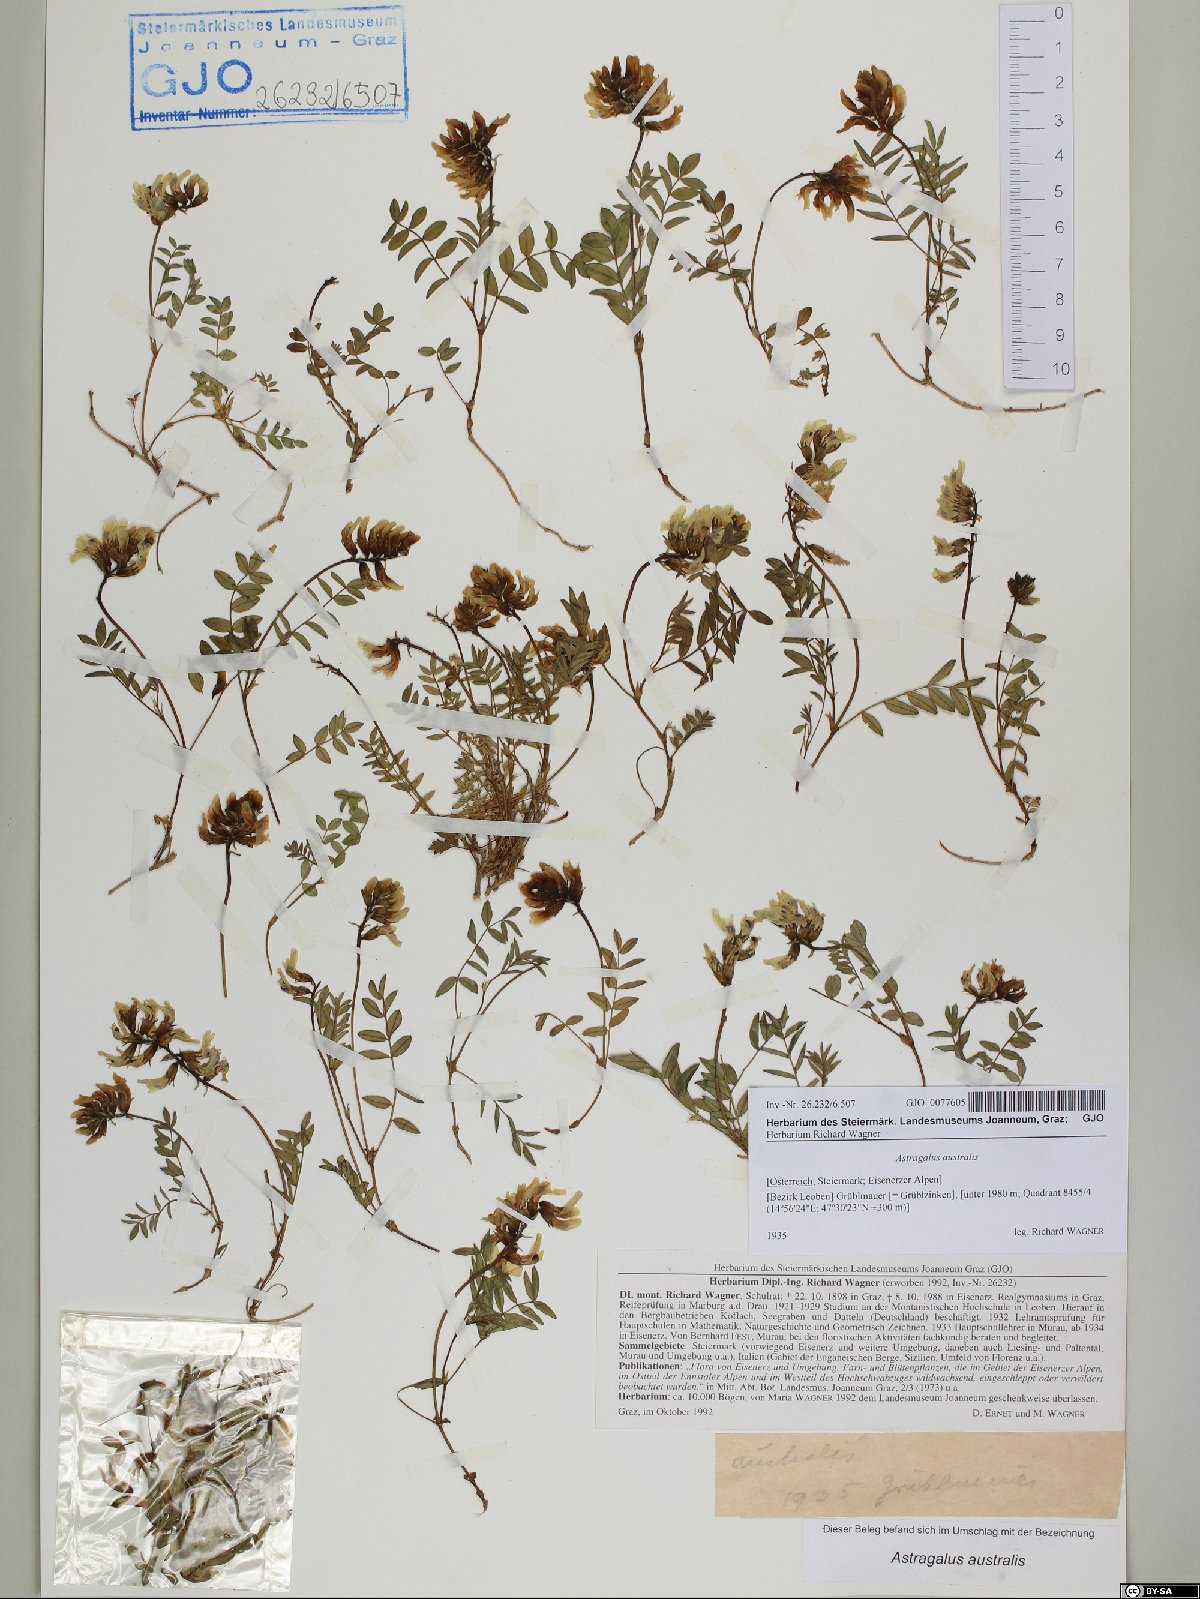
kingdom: Plantae
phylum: Tracheophyta
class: Magnoliopsida
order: Fabales
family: Fabaceae
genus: Astragalus
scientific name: Astragalus australis
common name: Indian milk-vetch
